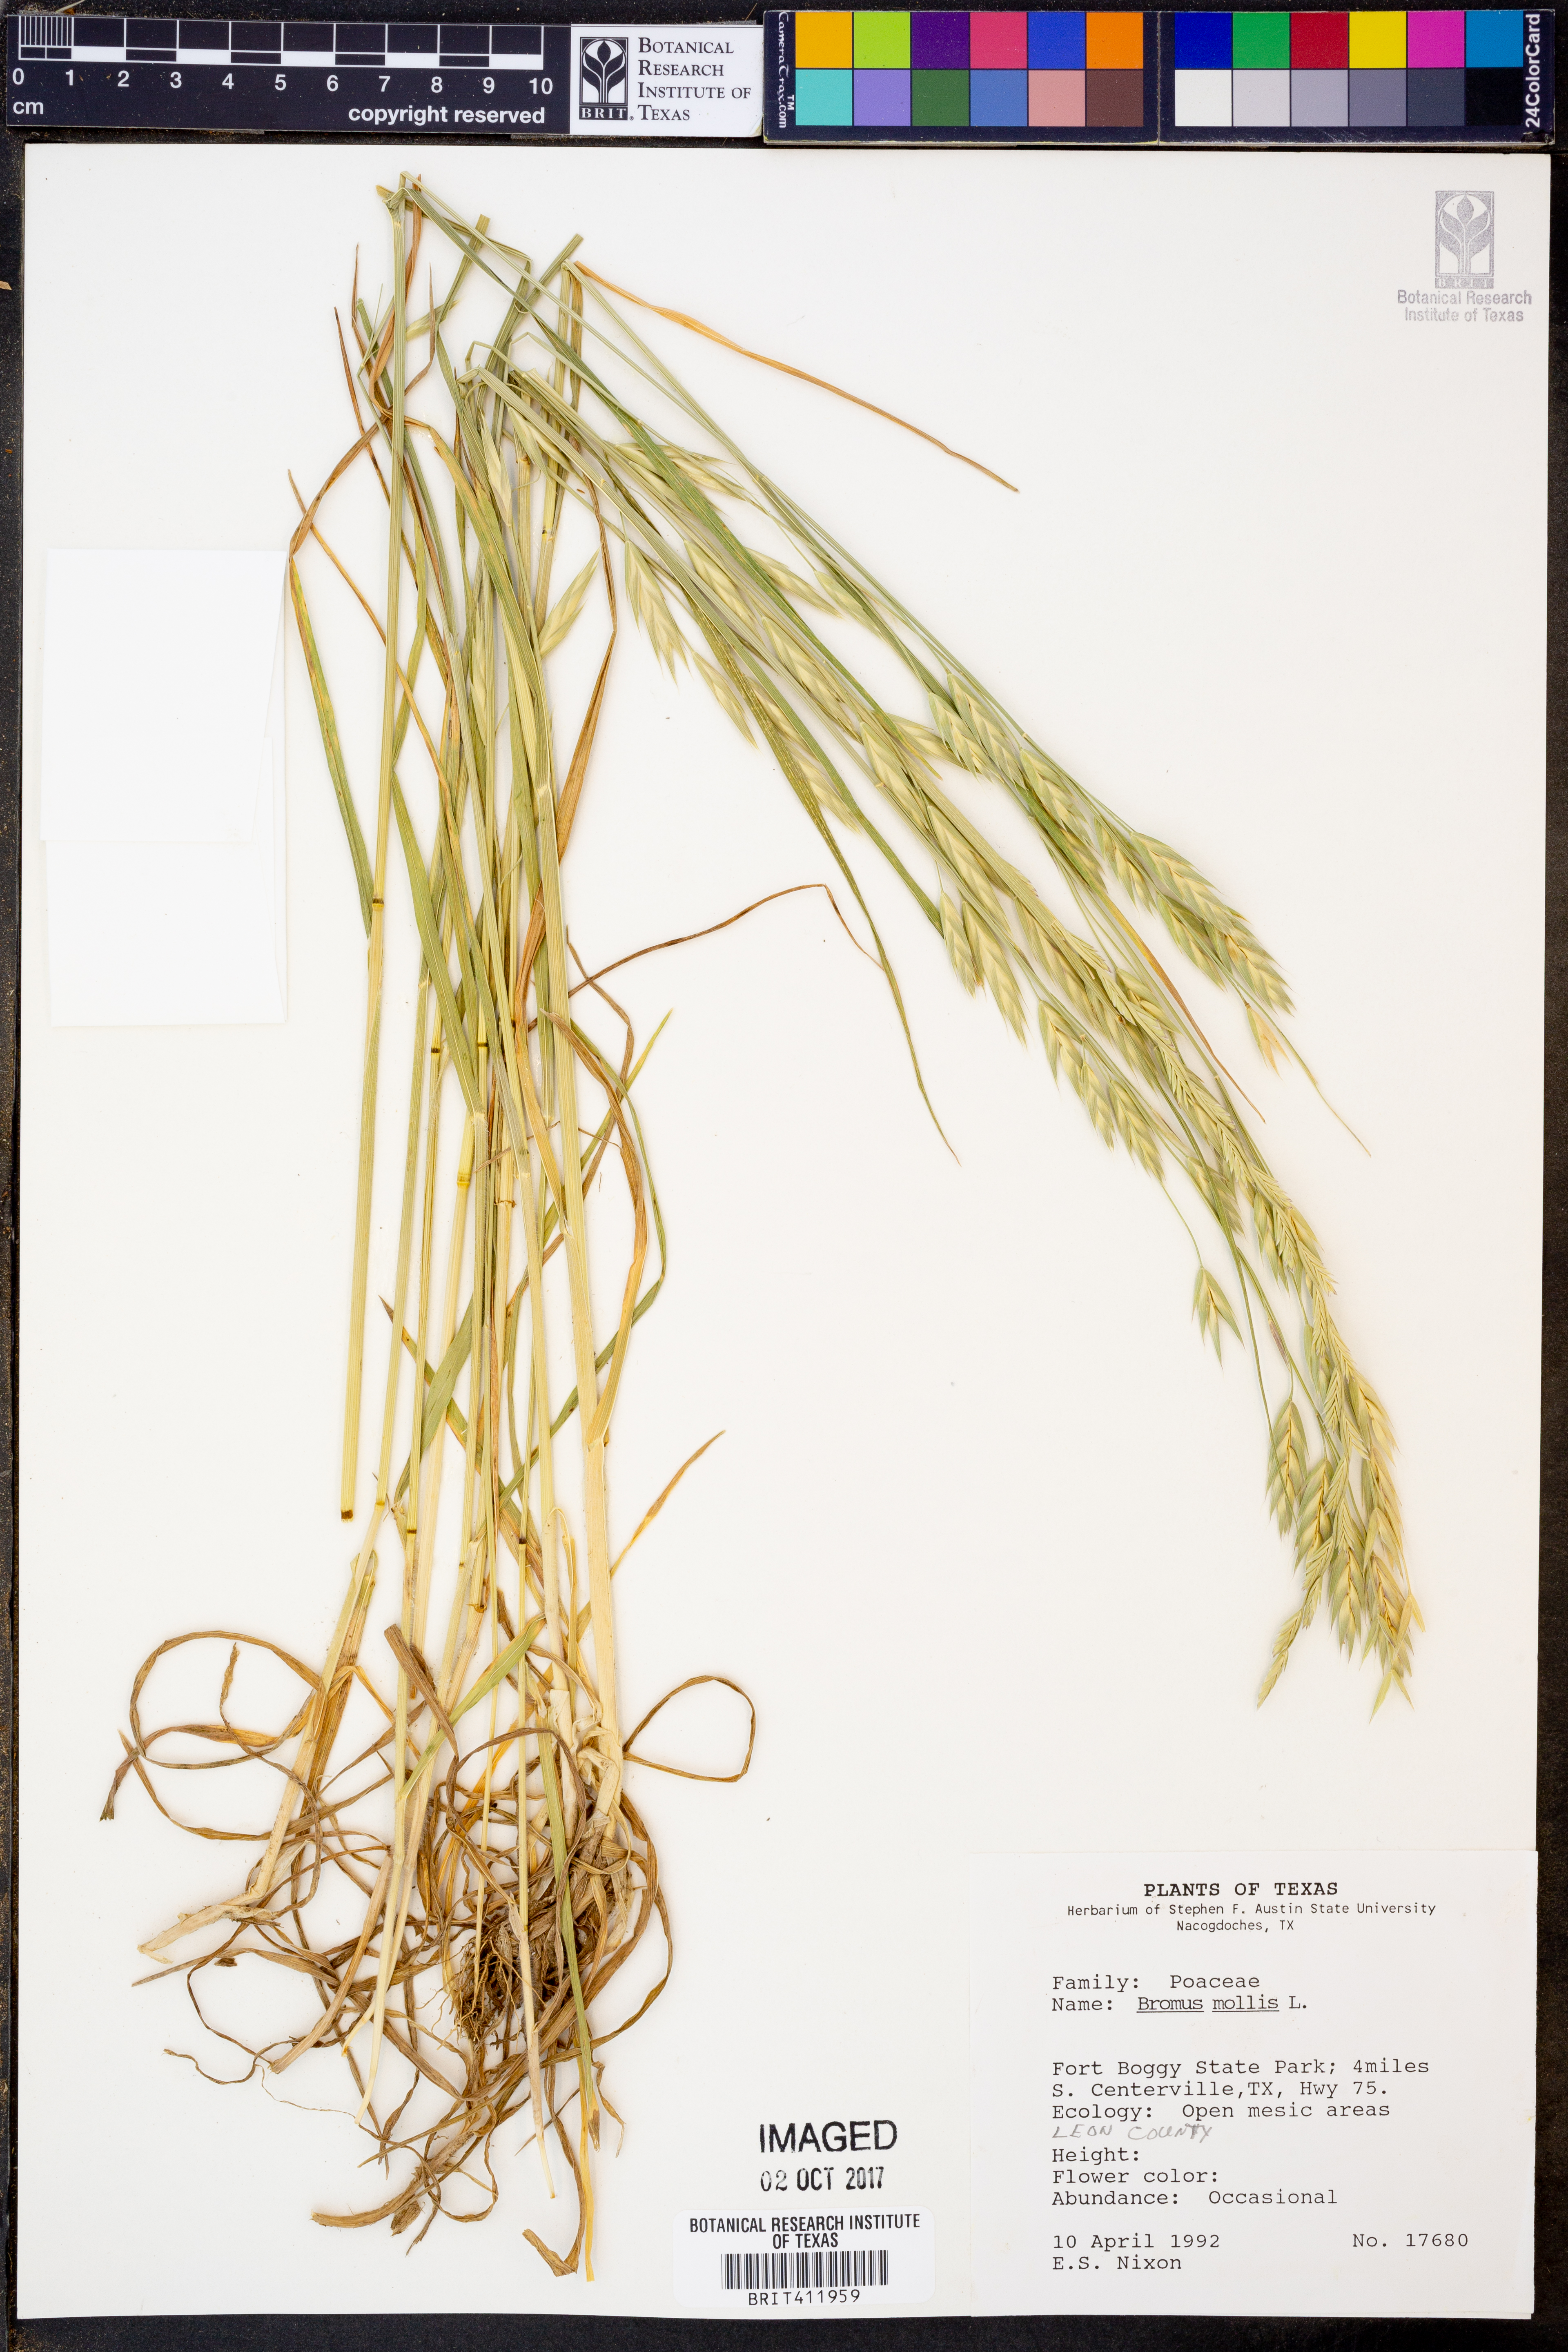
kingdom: Plantae
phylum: Tracheophyta
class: Liliopsida
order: Poales
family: Poaceae
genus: Bromus
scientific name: Bromus
